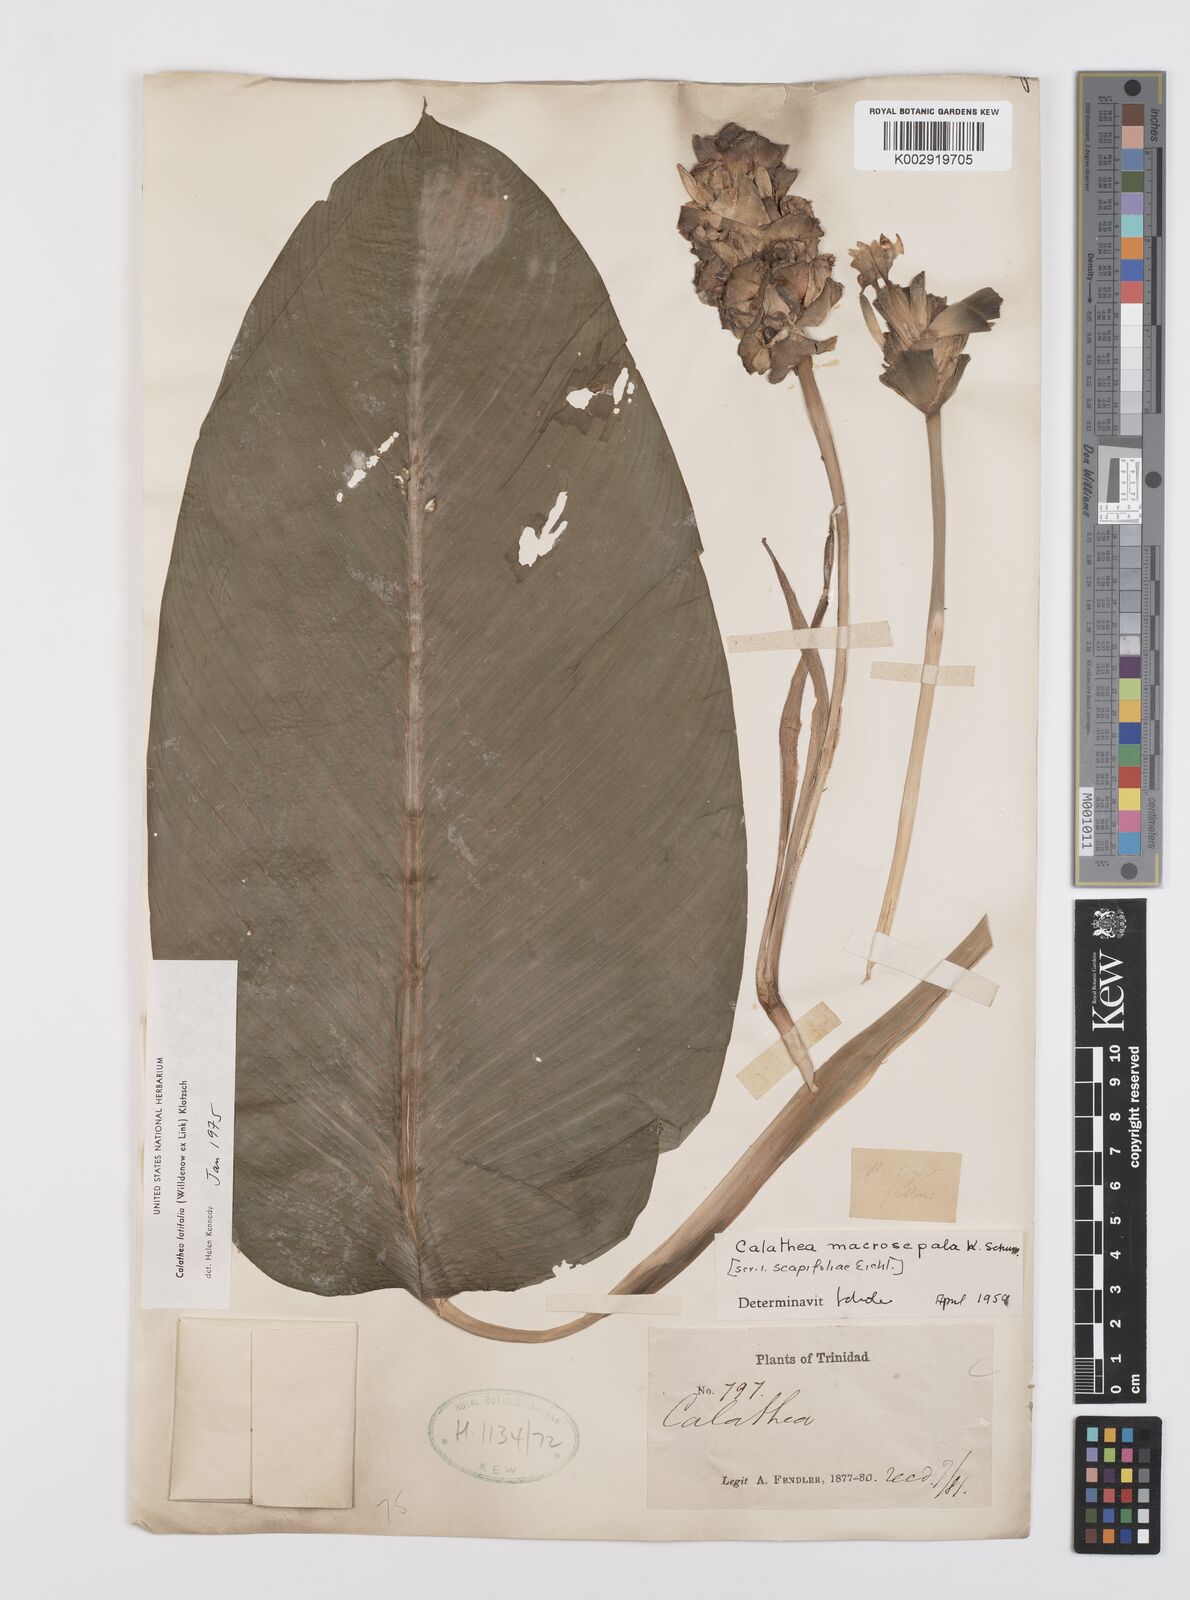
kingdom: Plantae
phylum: Tracheophyta
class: Liliopsida
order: Zingiberales
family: Marantaceae
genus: Goeppertia
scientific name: Goeppertia latifolia
